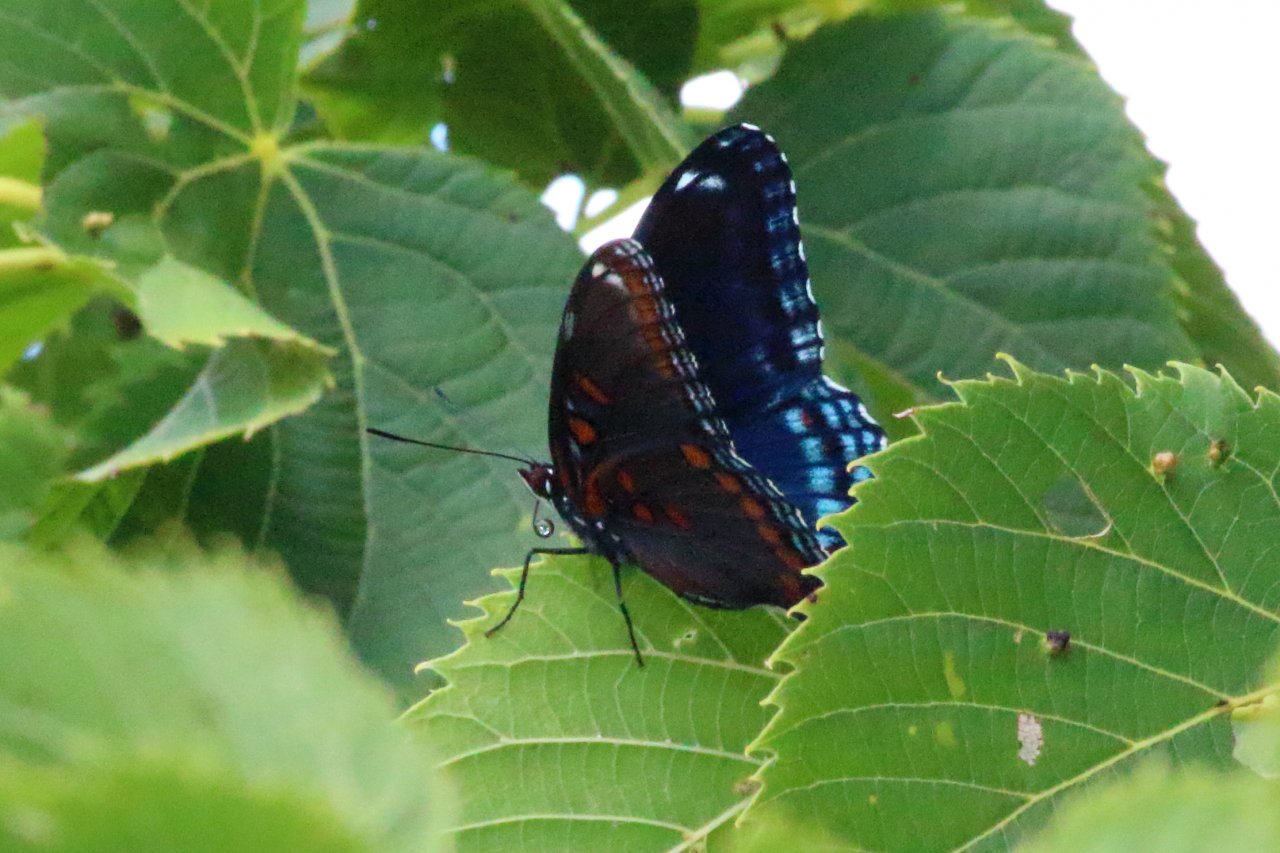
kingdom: Animalia
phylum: Arthropoda
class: Insecta
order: Lepidoptera
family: Nymphalidae
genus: Limenitis
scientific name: Limenitis astyanax
